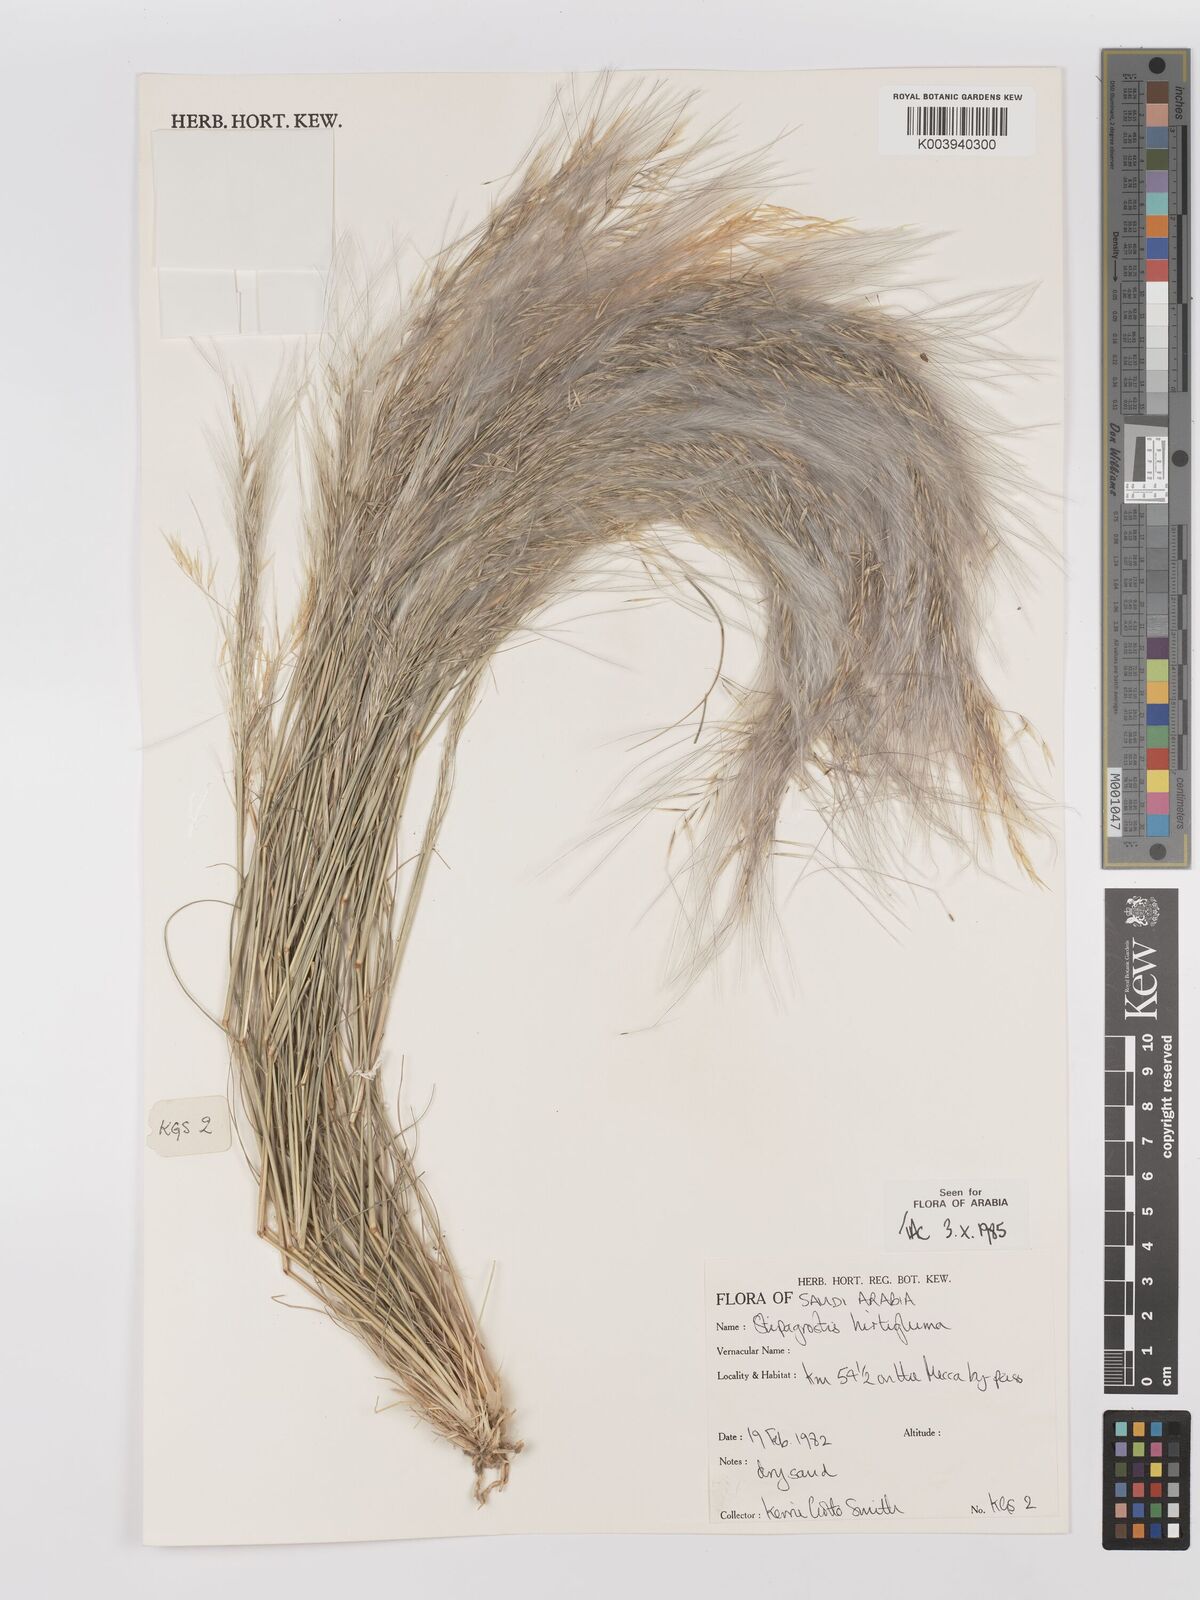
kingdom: Plantae
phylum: Tracheophyta
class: Liliopsida
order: Poales
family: Poaceae
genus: Stipagrostis
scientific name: Stipagrostis hirtigluma
